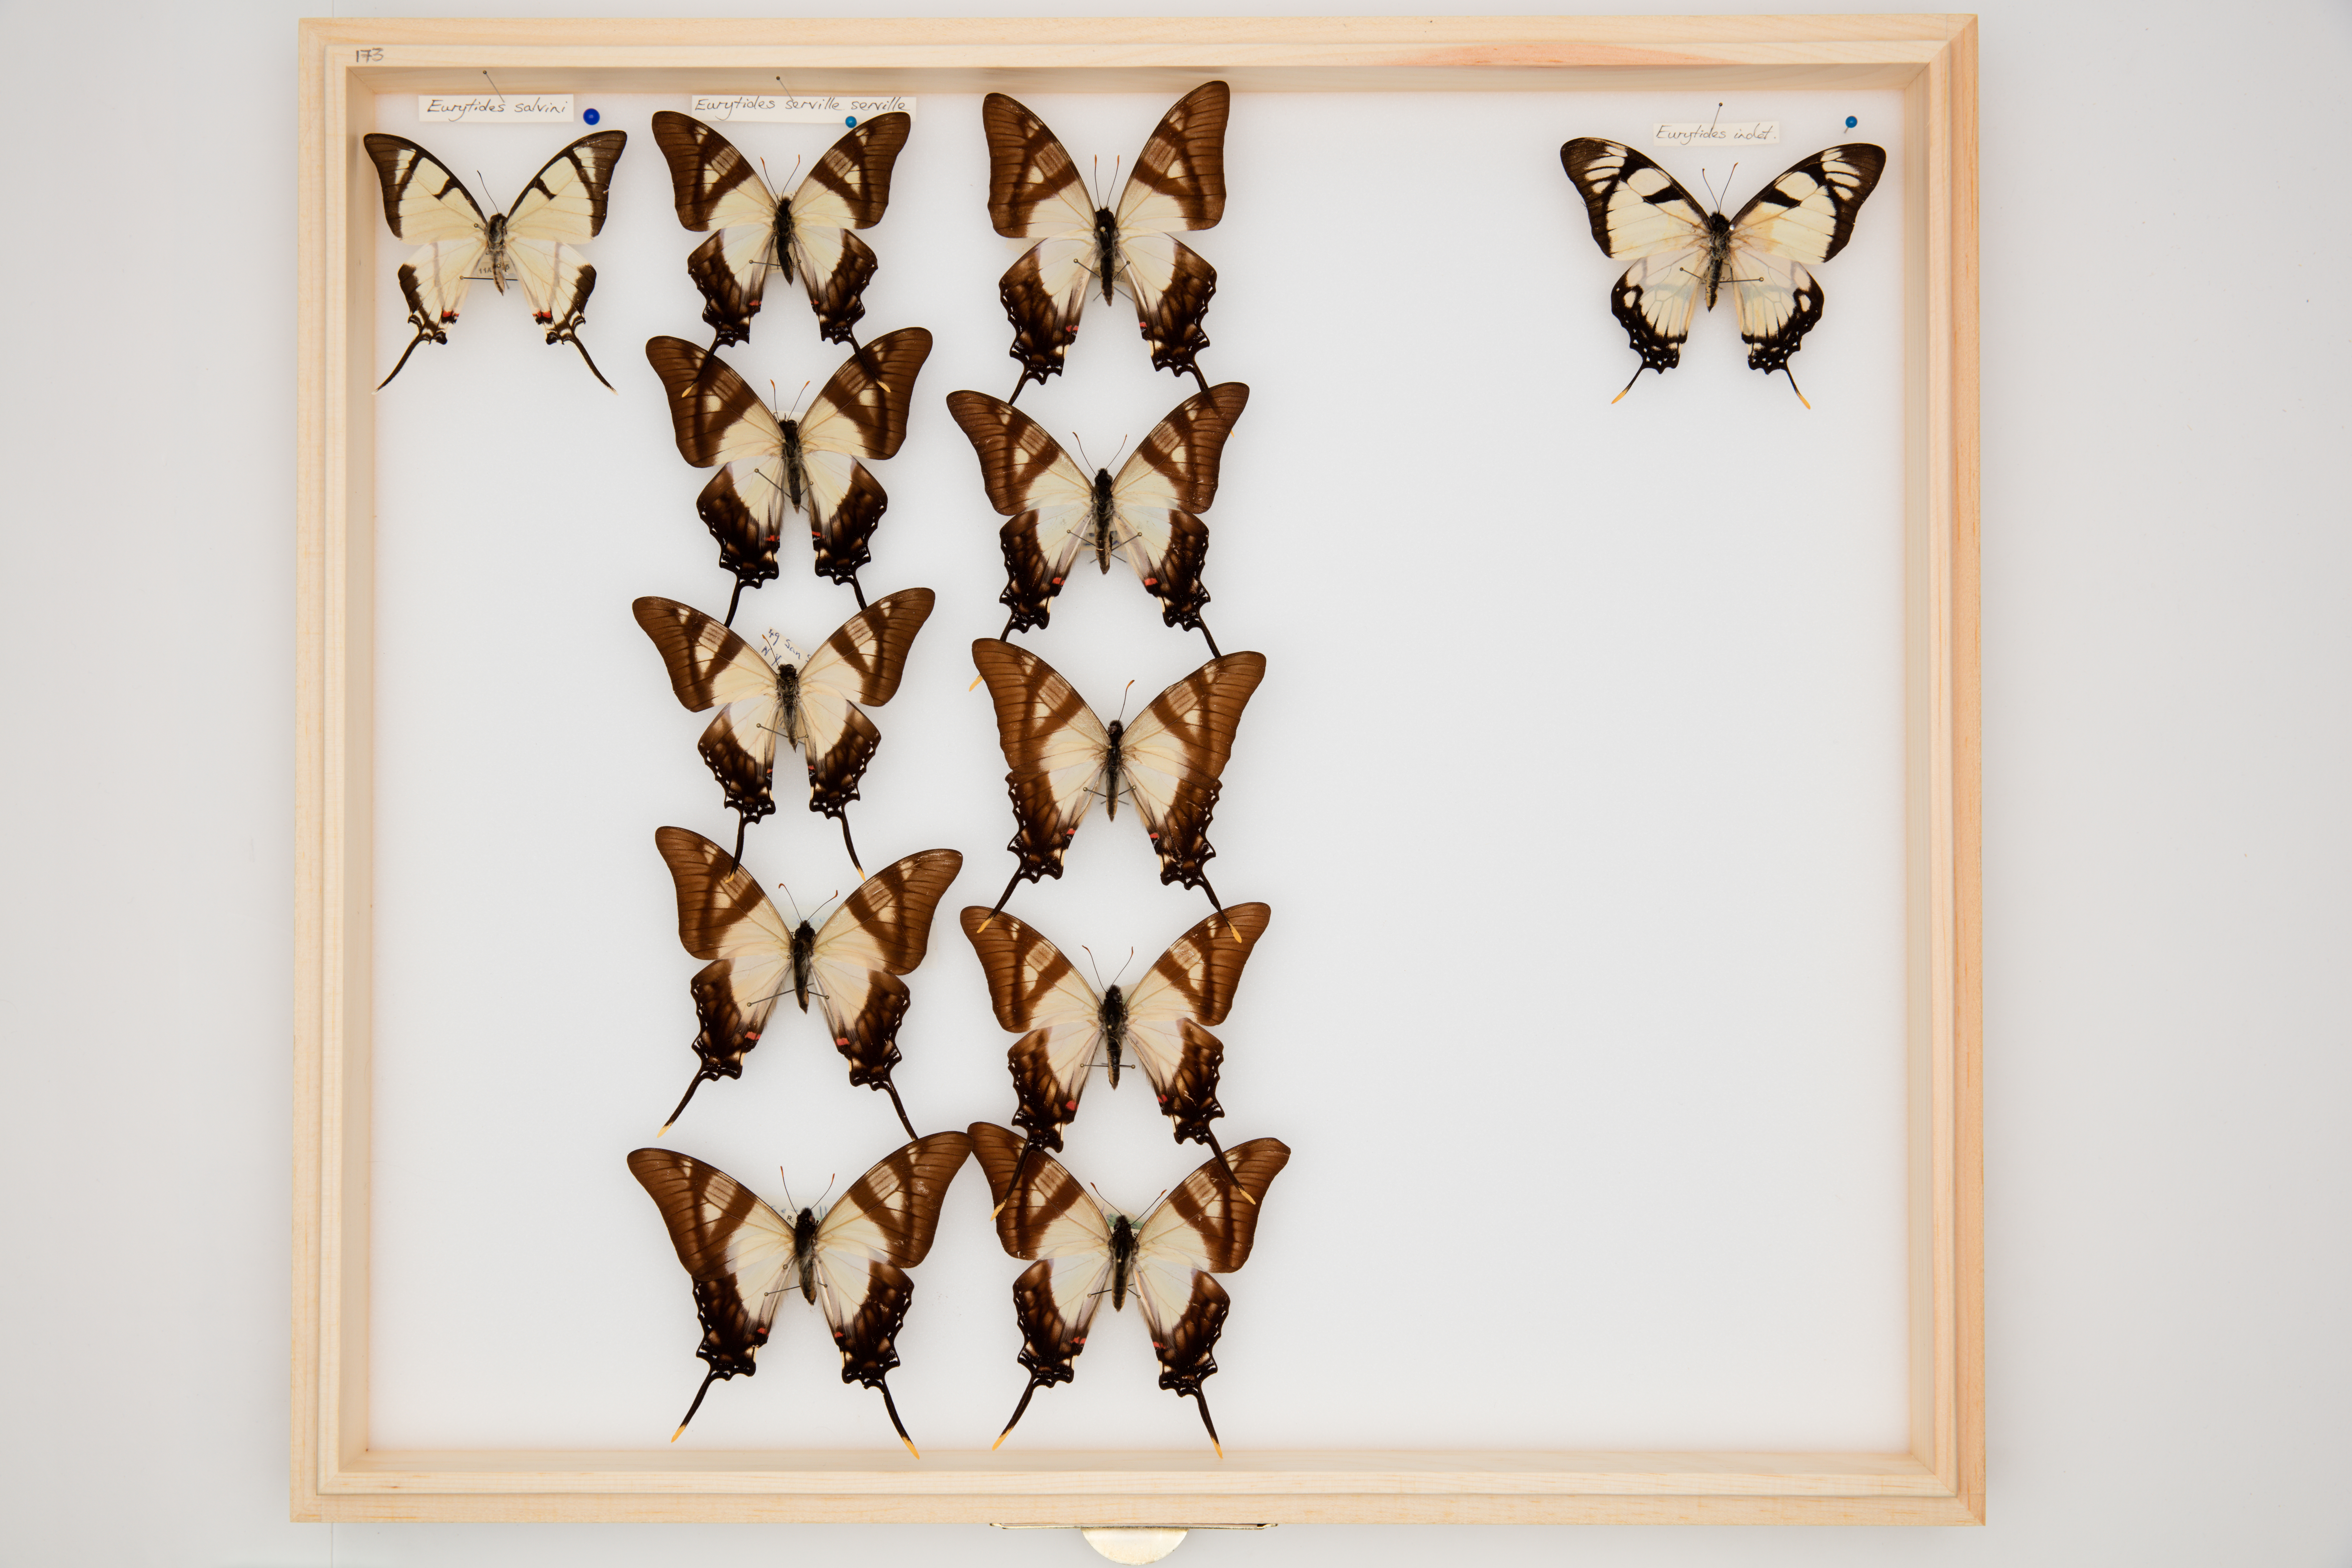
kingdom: Animalia
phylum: Arthropoda
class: Insecta
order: Lepidoptera
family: Papilionidae
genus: Eurytides
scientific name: Eurytides salvini
